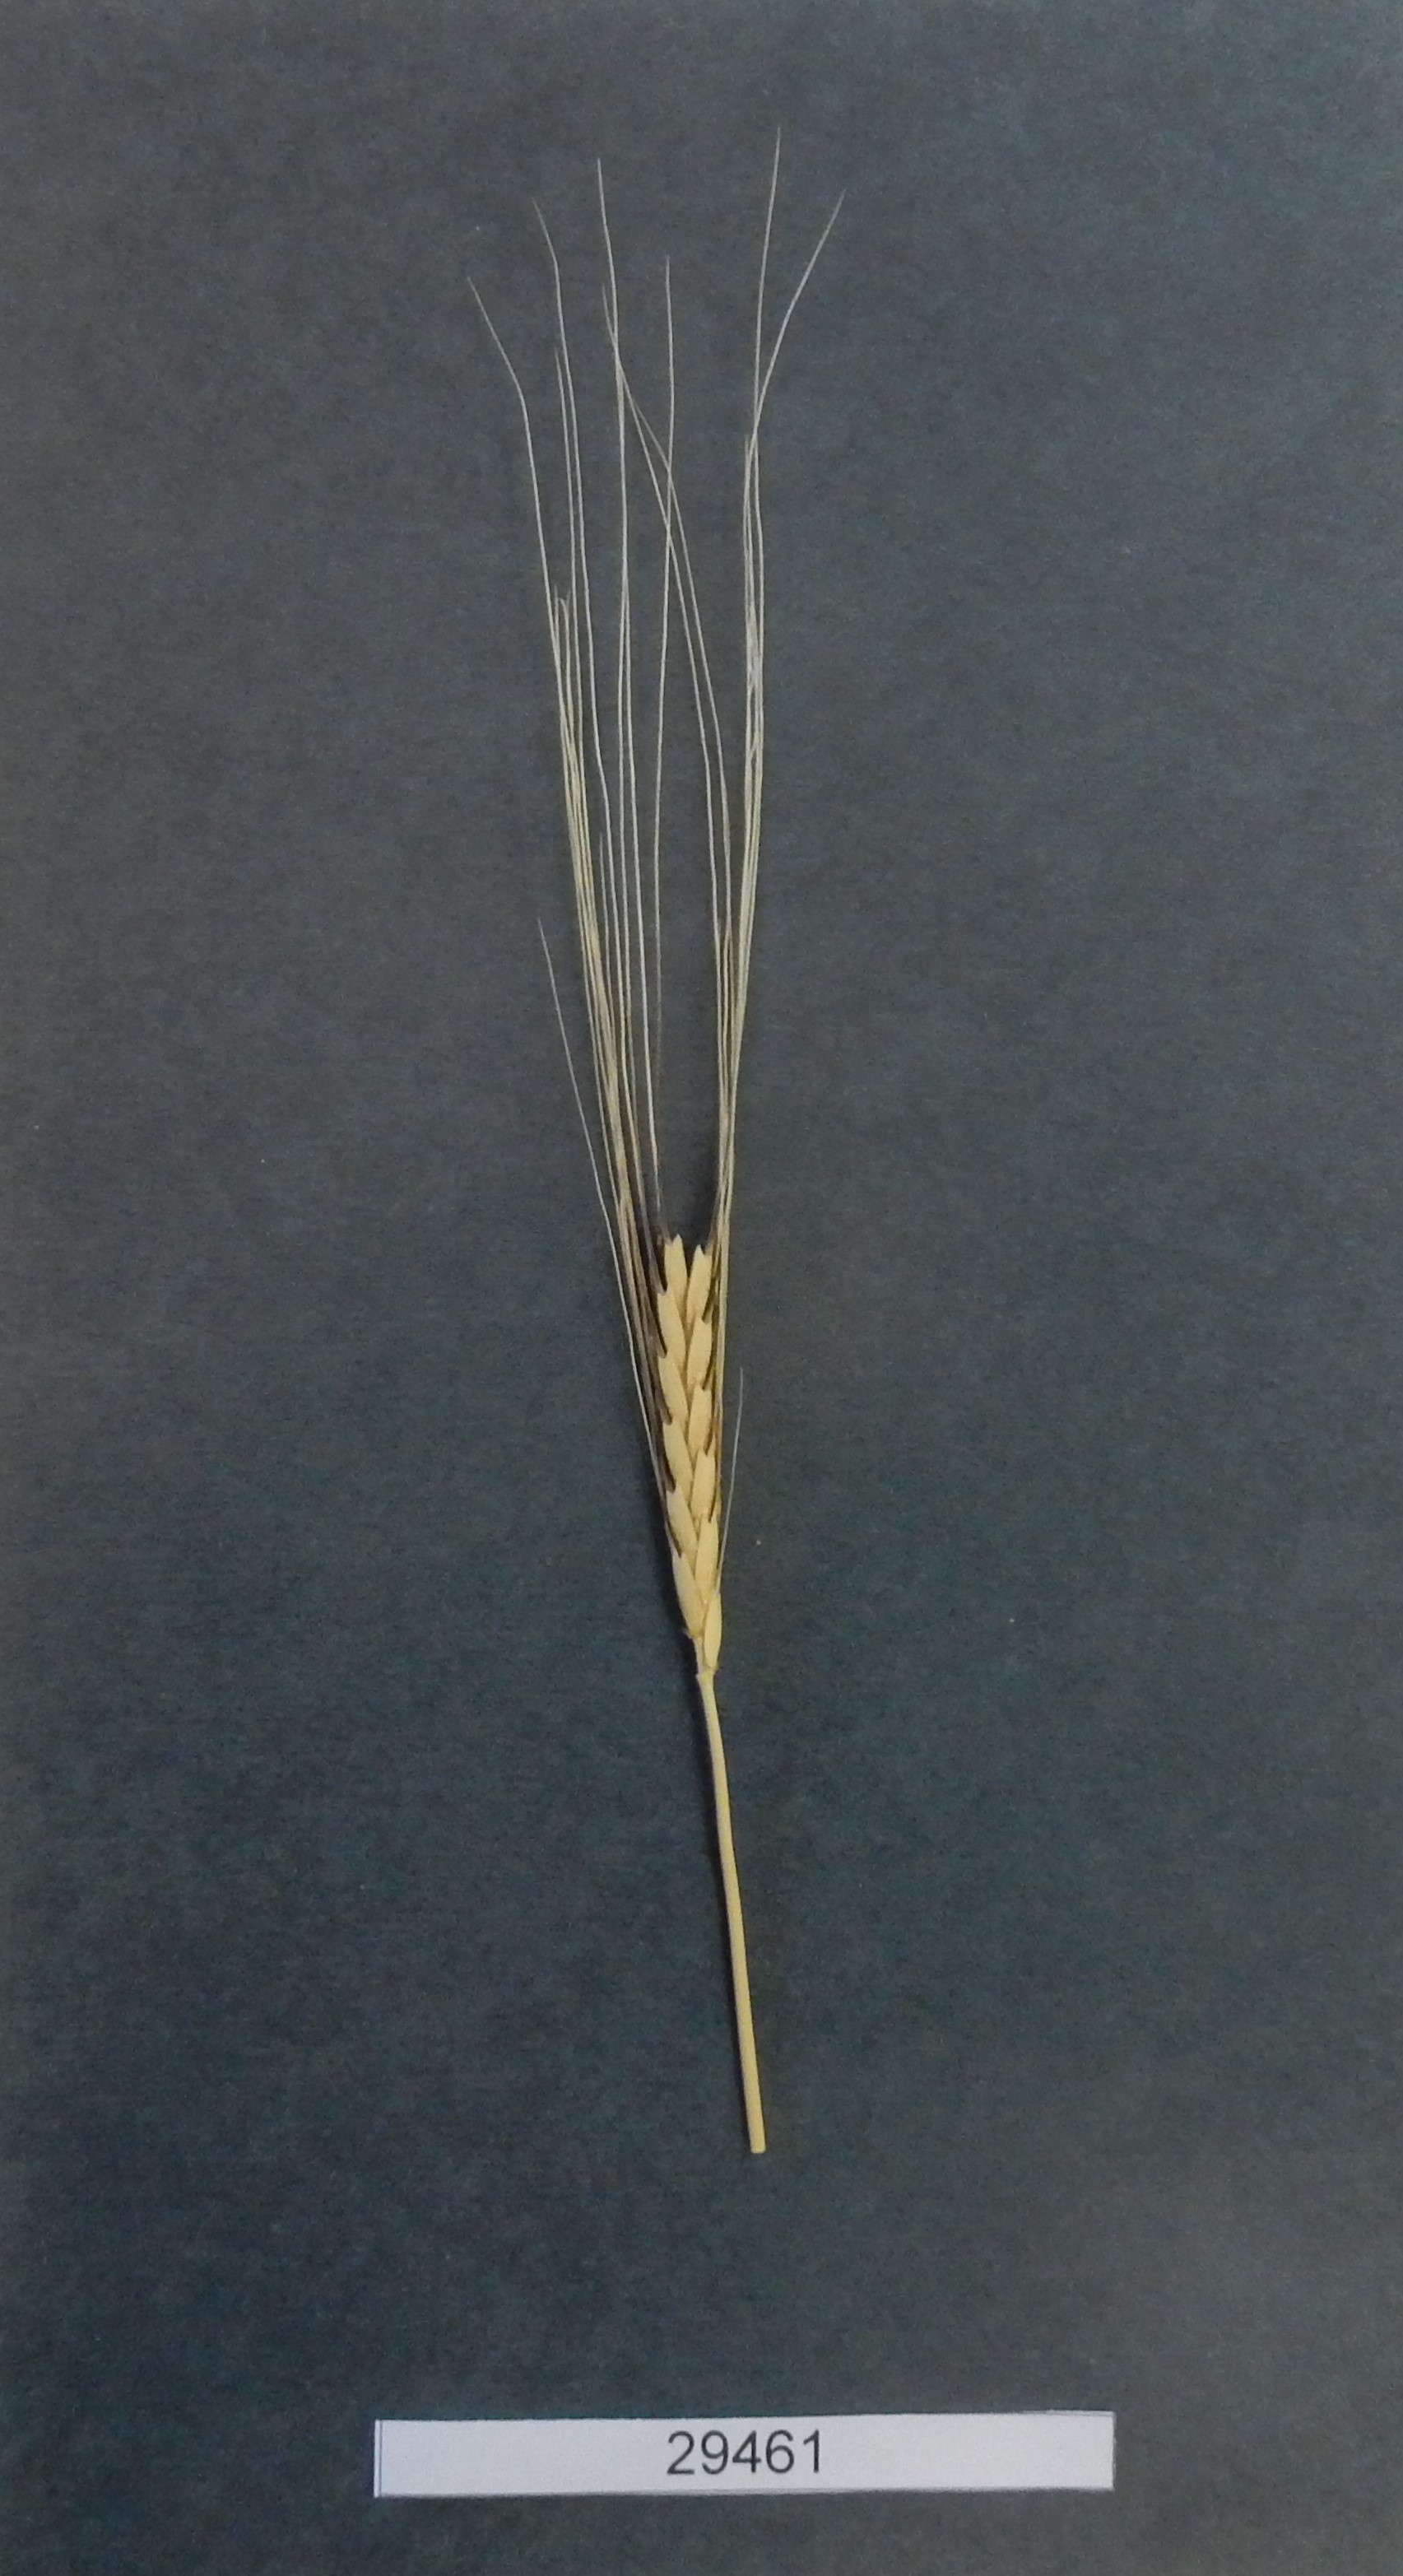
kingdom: Plantae
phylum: Tracheophyta
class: Liliopsida
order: Poales
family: Poaceae
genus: Triticum
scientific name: Triticum monococcum
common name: Wheat
